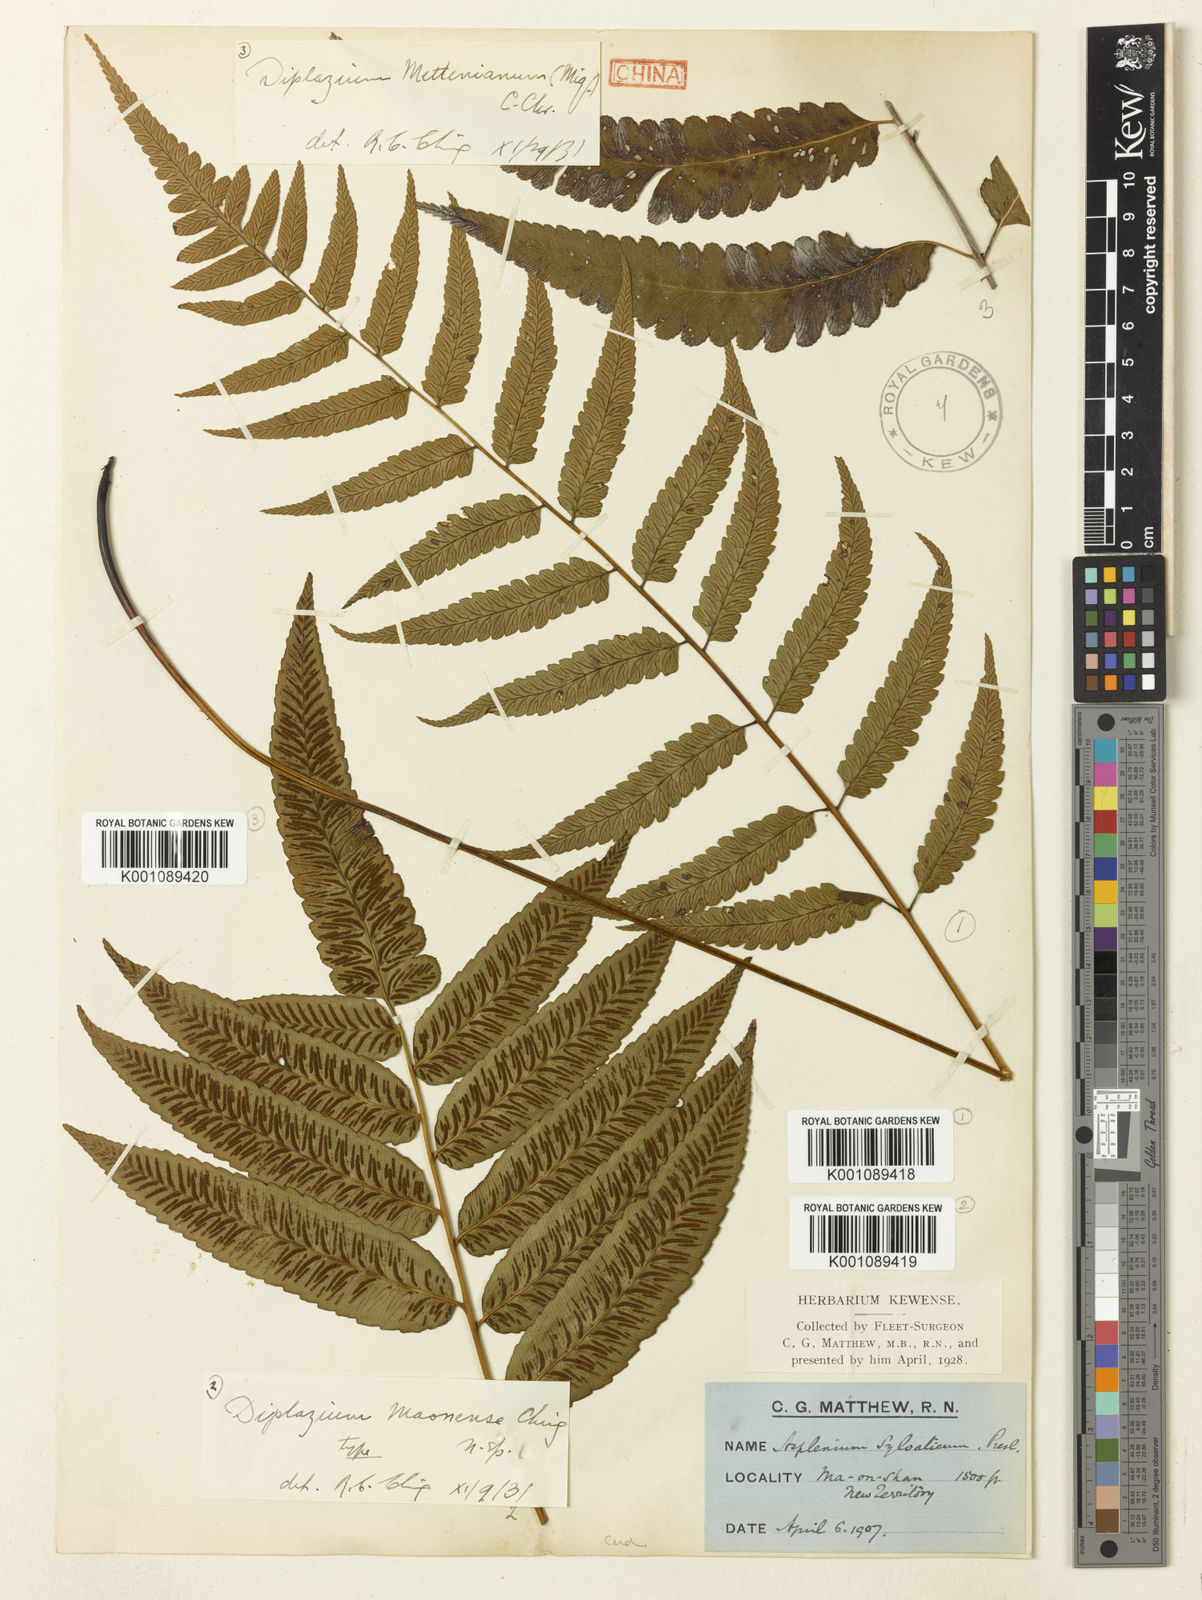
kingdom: Plantae
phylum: Tracheophyta
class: Polypodiopsida
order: Polypodiales
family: Athyriaceae
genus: Diplazium
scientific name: Diplazium maonense
